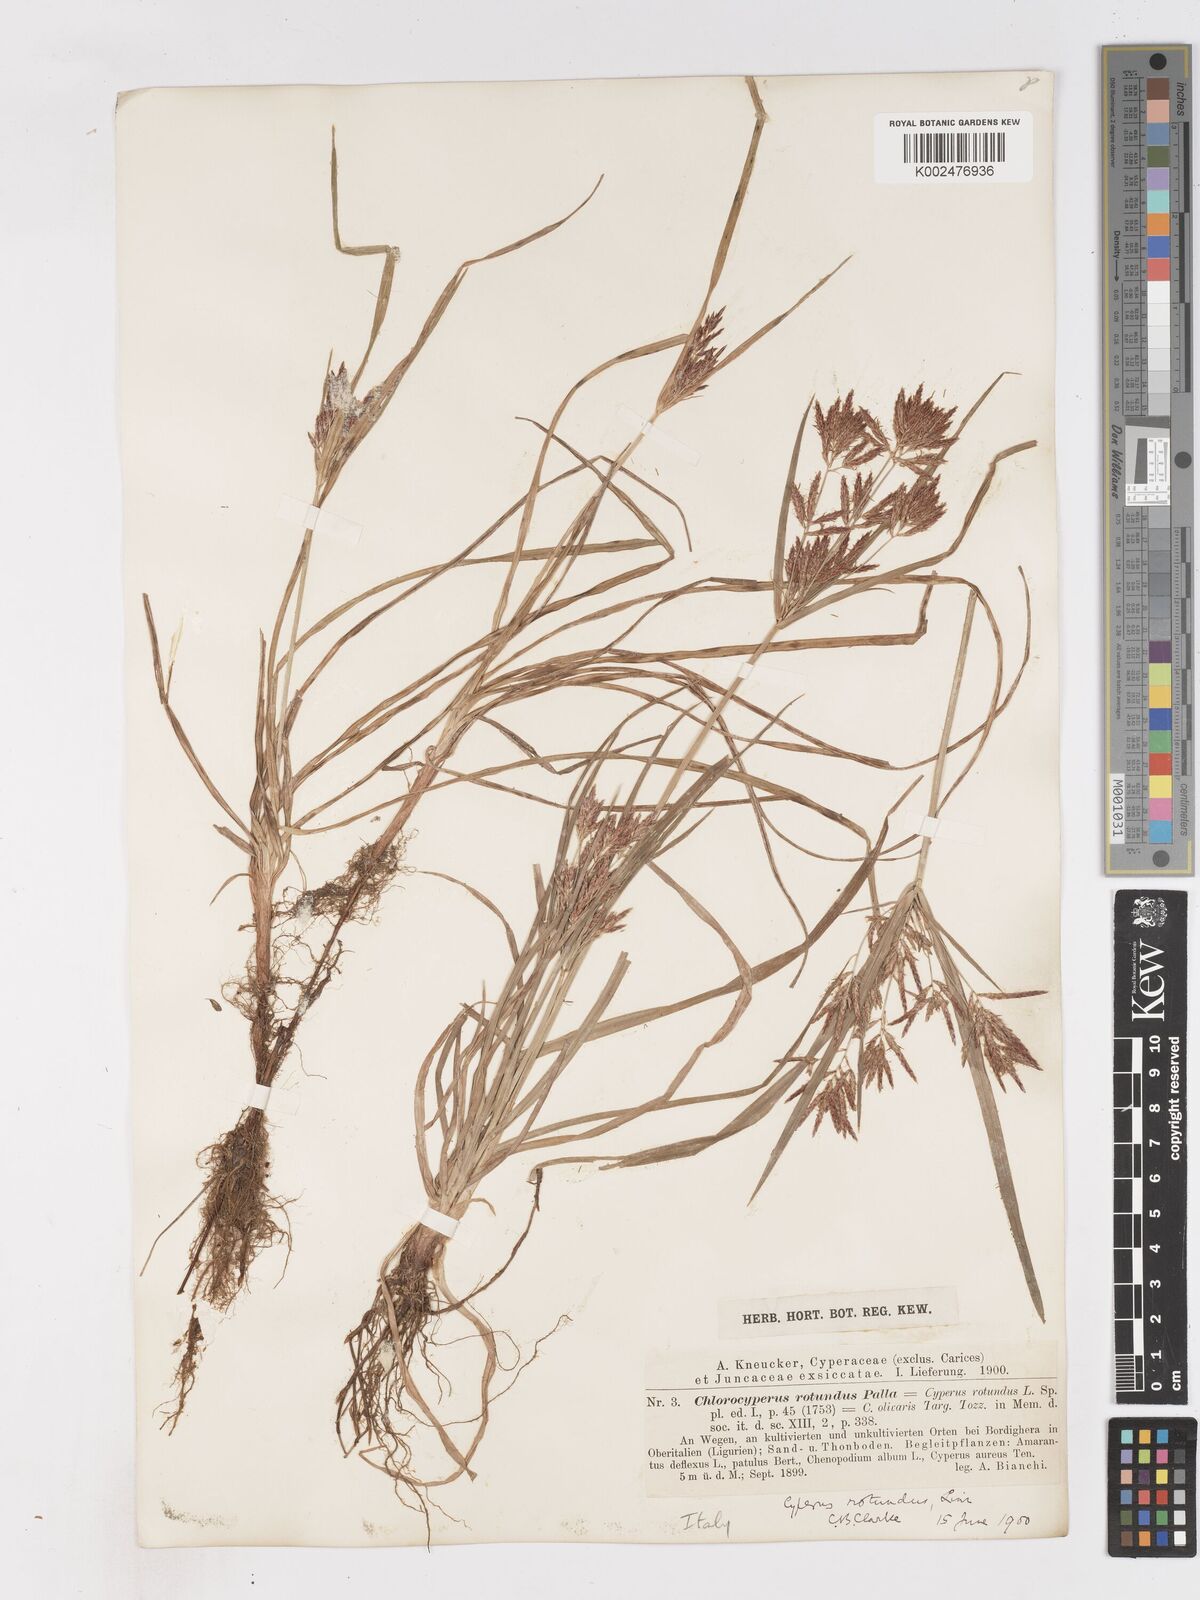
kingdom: Plantae
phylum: Tracheophyta
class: Liliopsida
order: Poales
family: Cyperaceae
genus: Cyperus
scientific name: Cyperus rotundus
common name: Nutgrass
